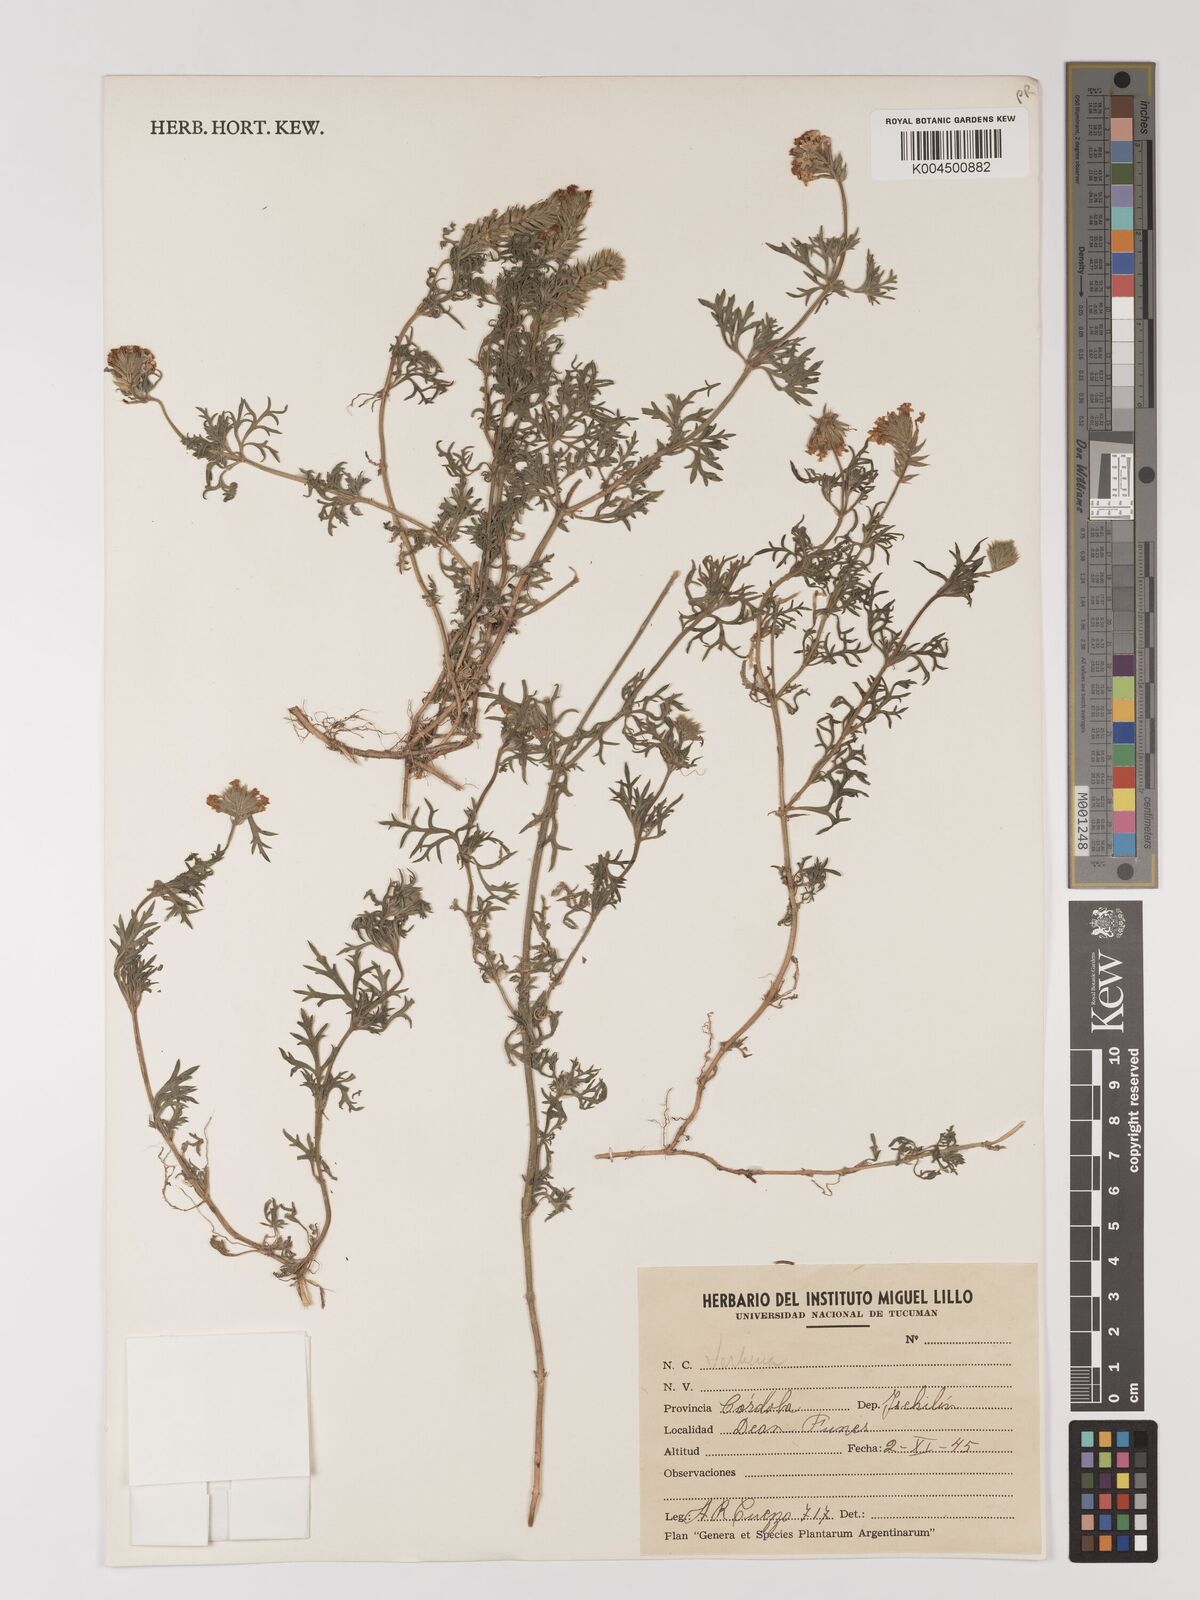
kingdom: Plantae
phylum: Tracheophyta
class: Magnoliopsida
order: Lamiales
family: Verbenaceae
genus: Verbena
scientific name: Verbena
